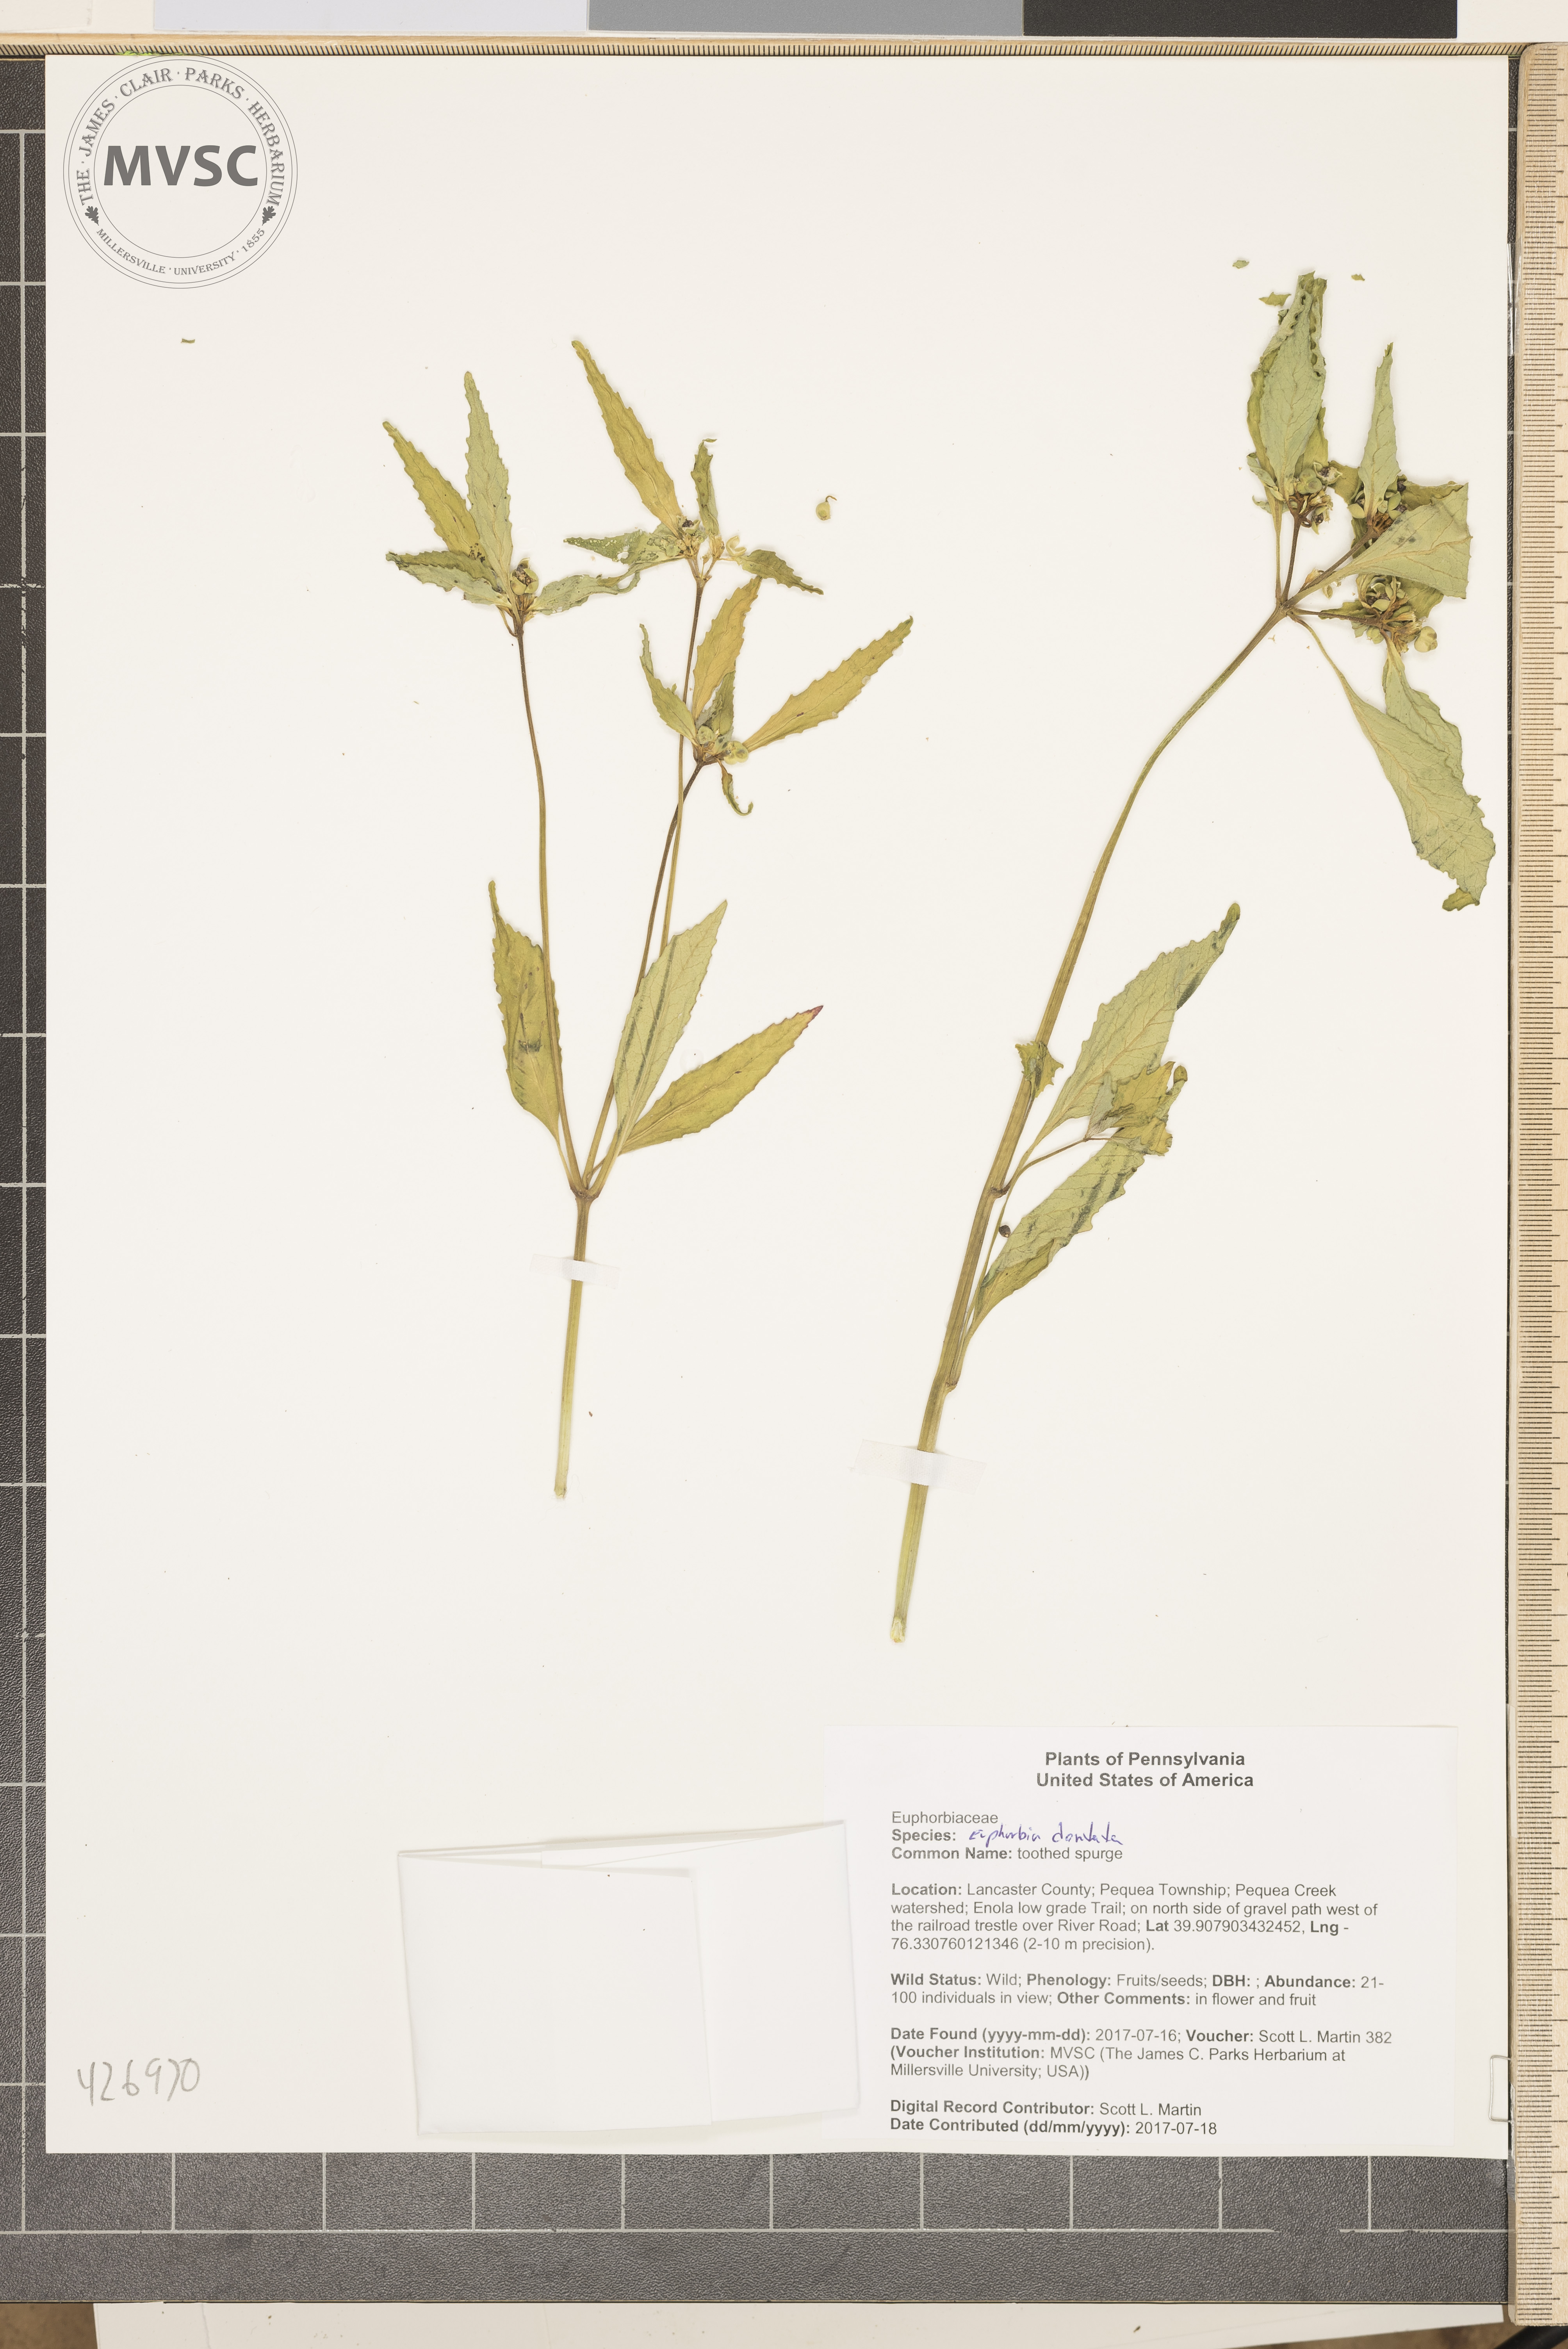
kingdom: Plantae
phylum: Tracheophyta
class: Magnoliopsida
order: Malpighiales
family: Euphorbiaceae
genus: Euphorbia
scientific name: Euphorbia davidii
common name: toothed spurge
